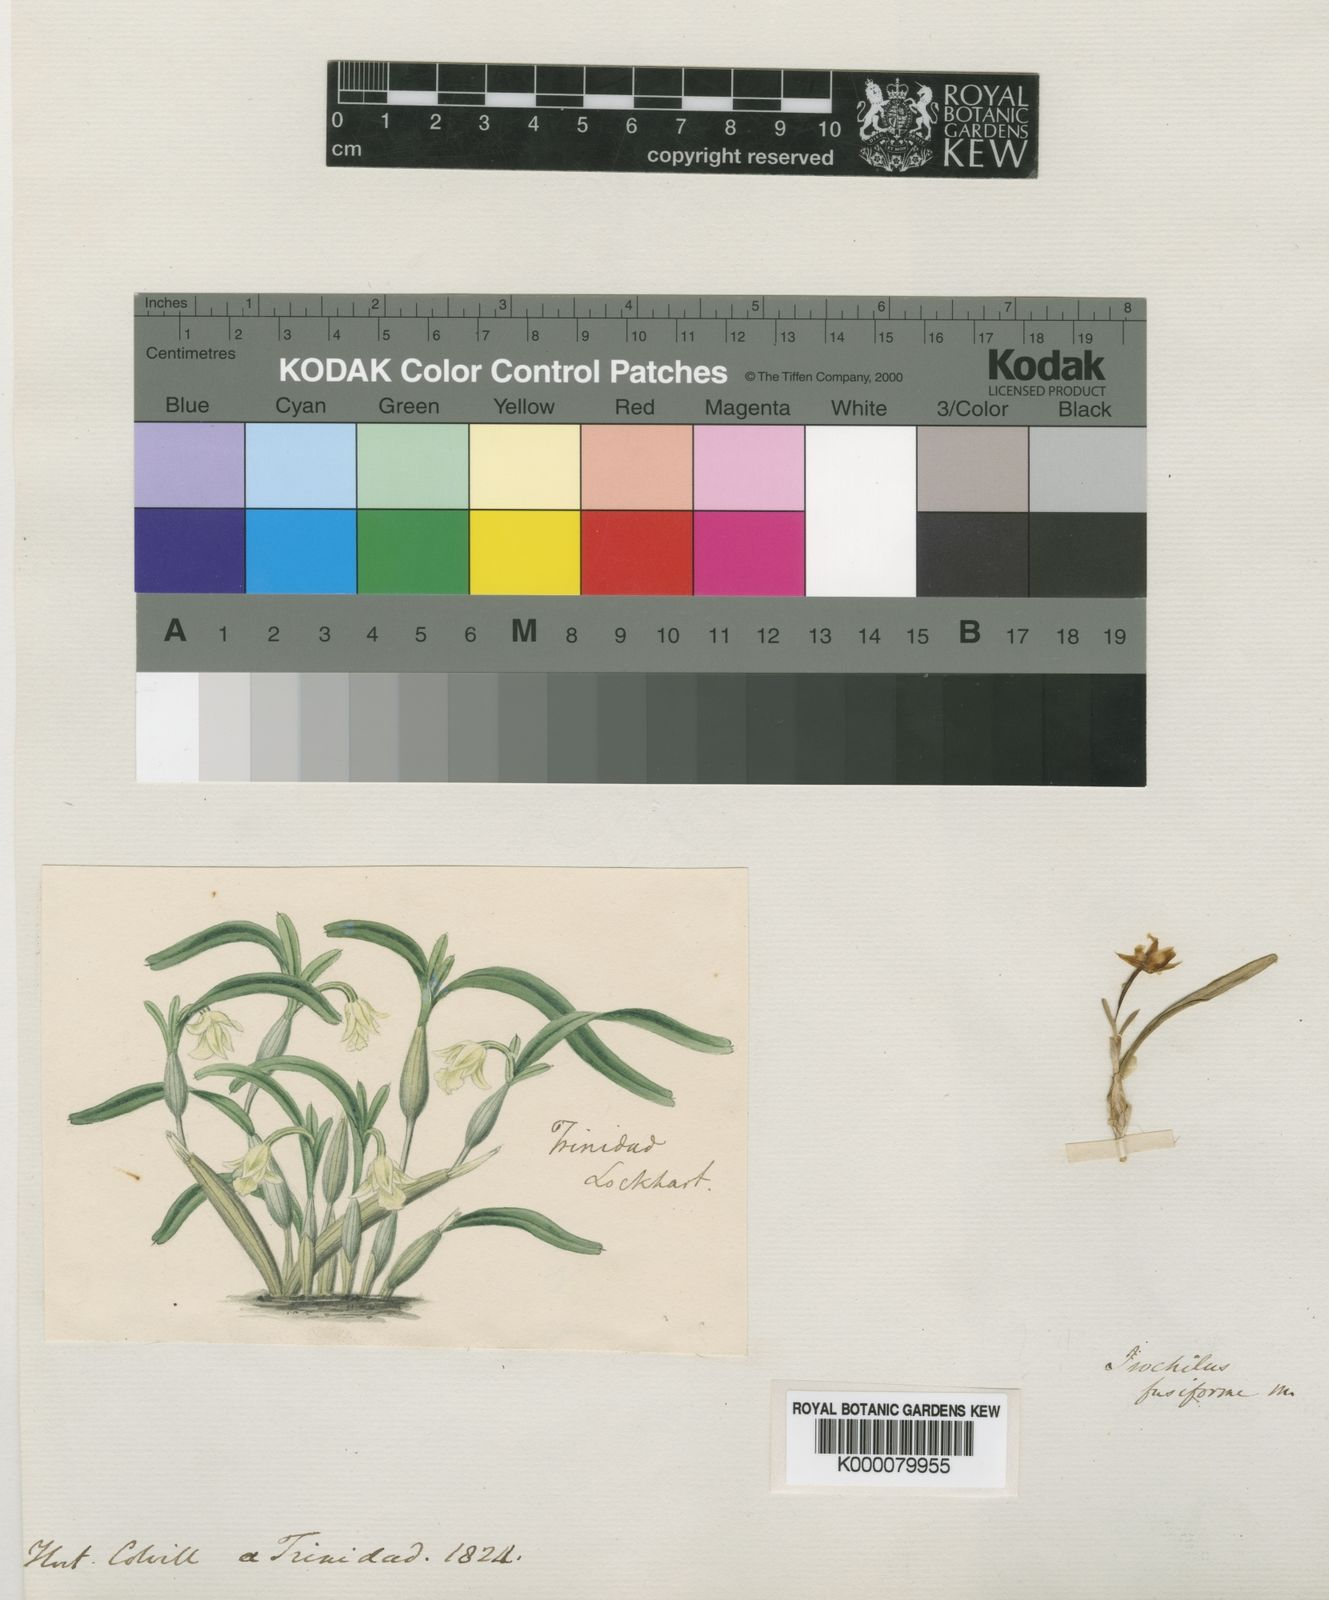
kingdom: Plantae
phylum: Tracheophyta
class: Liliopsida
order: Asparagales
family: Orchidaceae
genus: Epidendrum
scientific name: Epidendrum fusiforme
